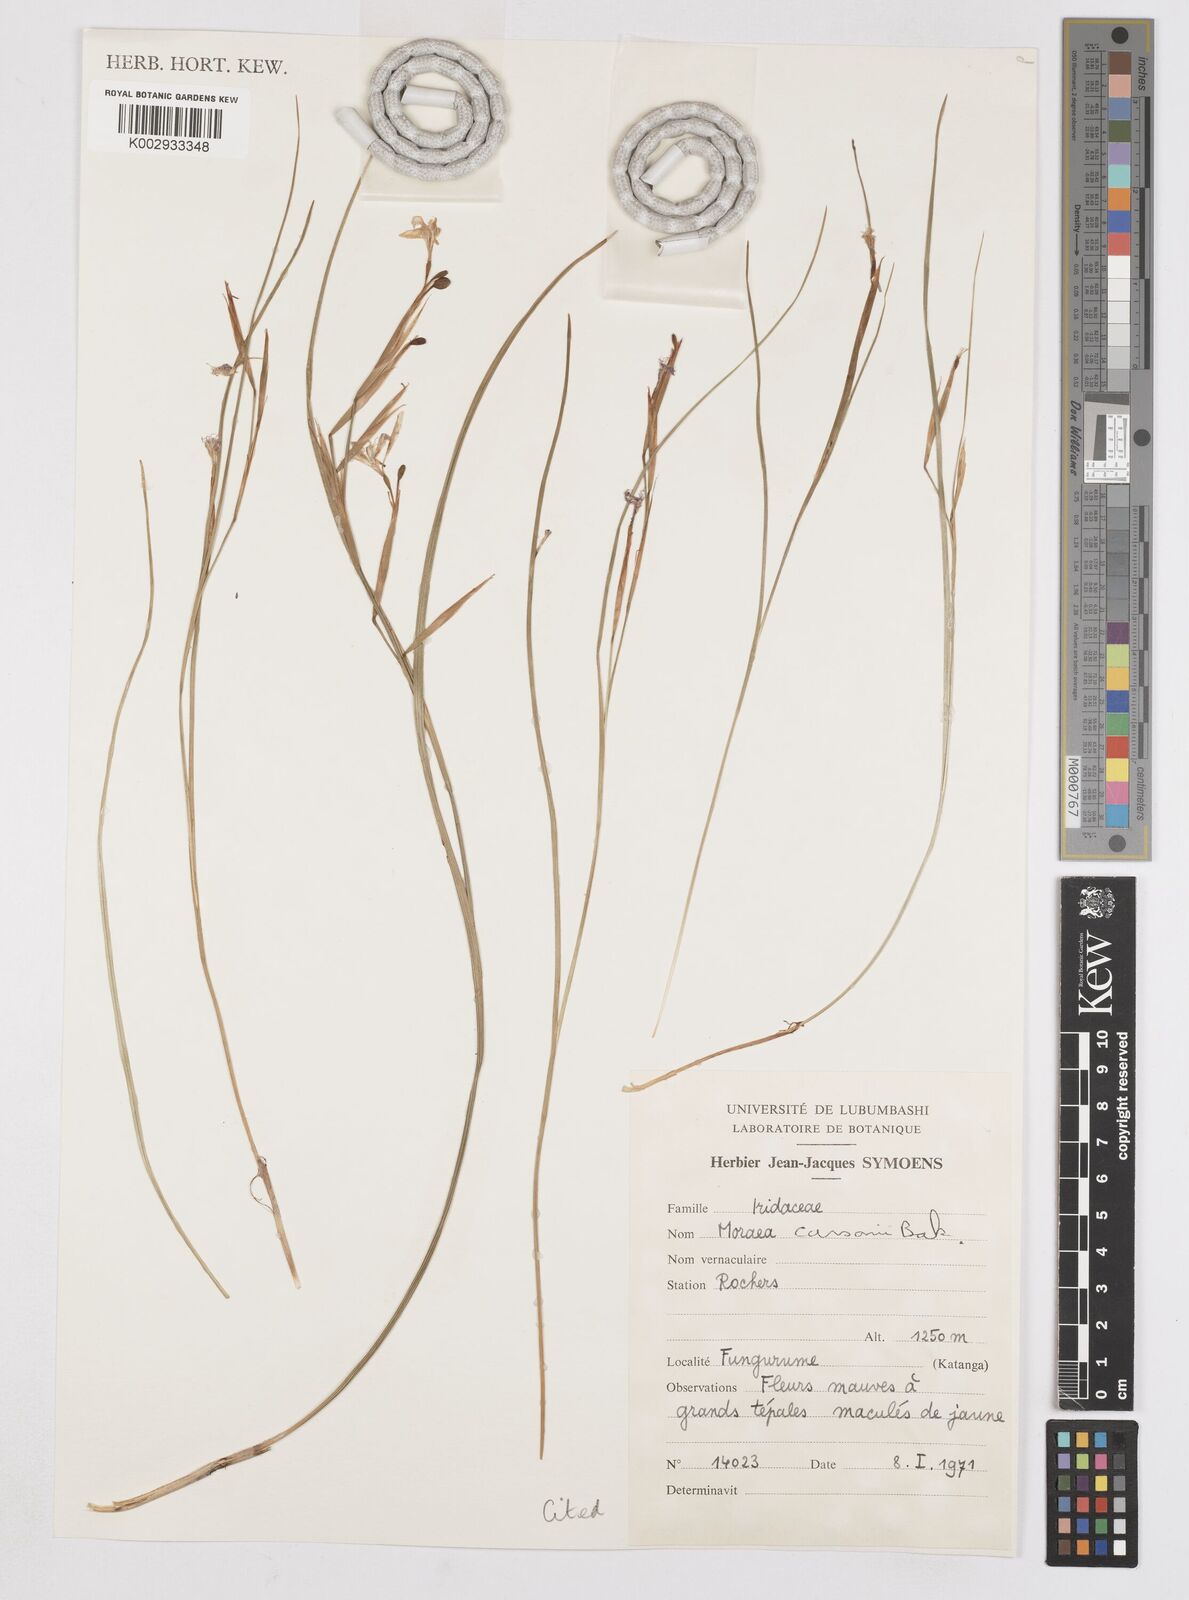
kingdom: Plantae
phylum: Tracheophyta
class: Liliopsida
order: Asparagales
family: Iridaceae
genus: Moraea
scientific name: Moraea carsonii
